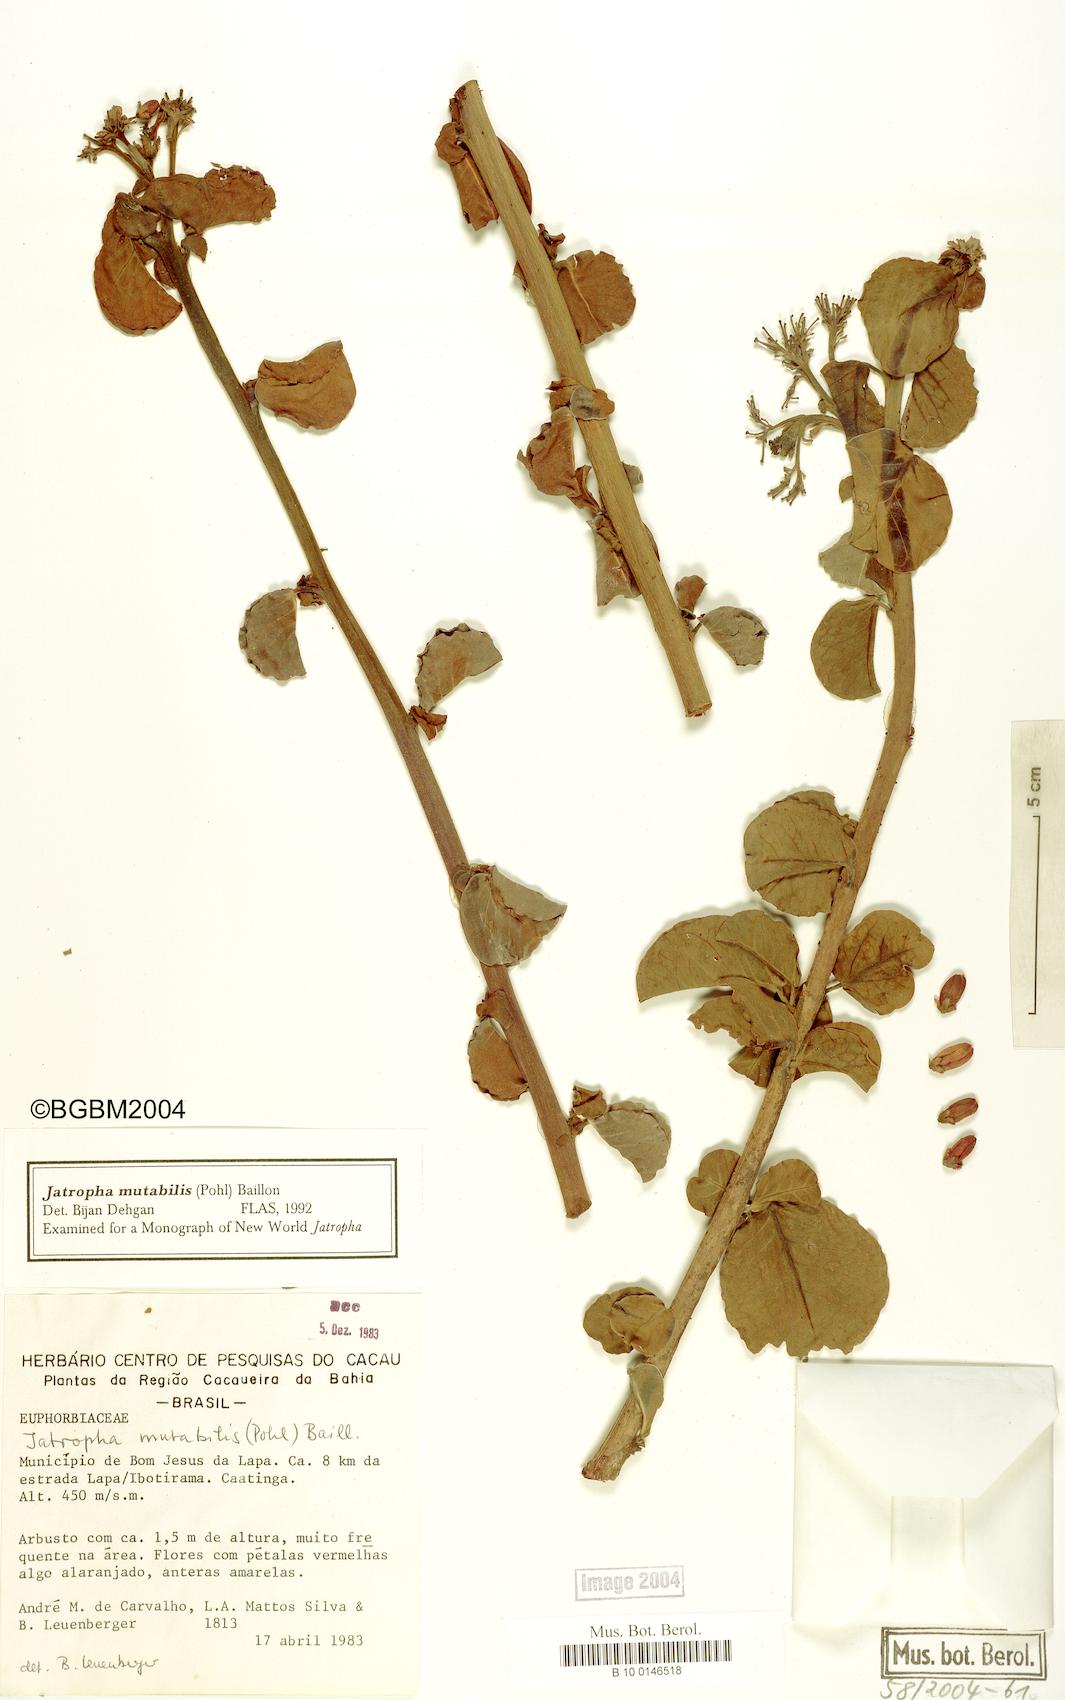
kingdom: Plantae
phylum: Tracheophyta
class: Magnoliopsida
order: Malpighiales
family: Euphorbiaceae
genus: Jatropha
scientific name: Jatropha mutabilis
